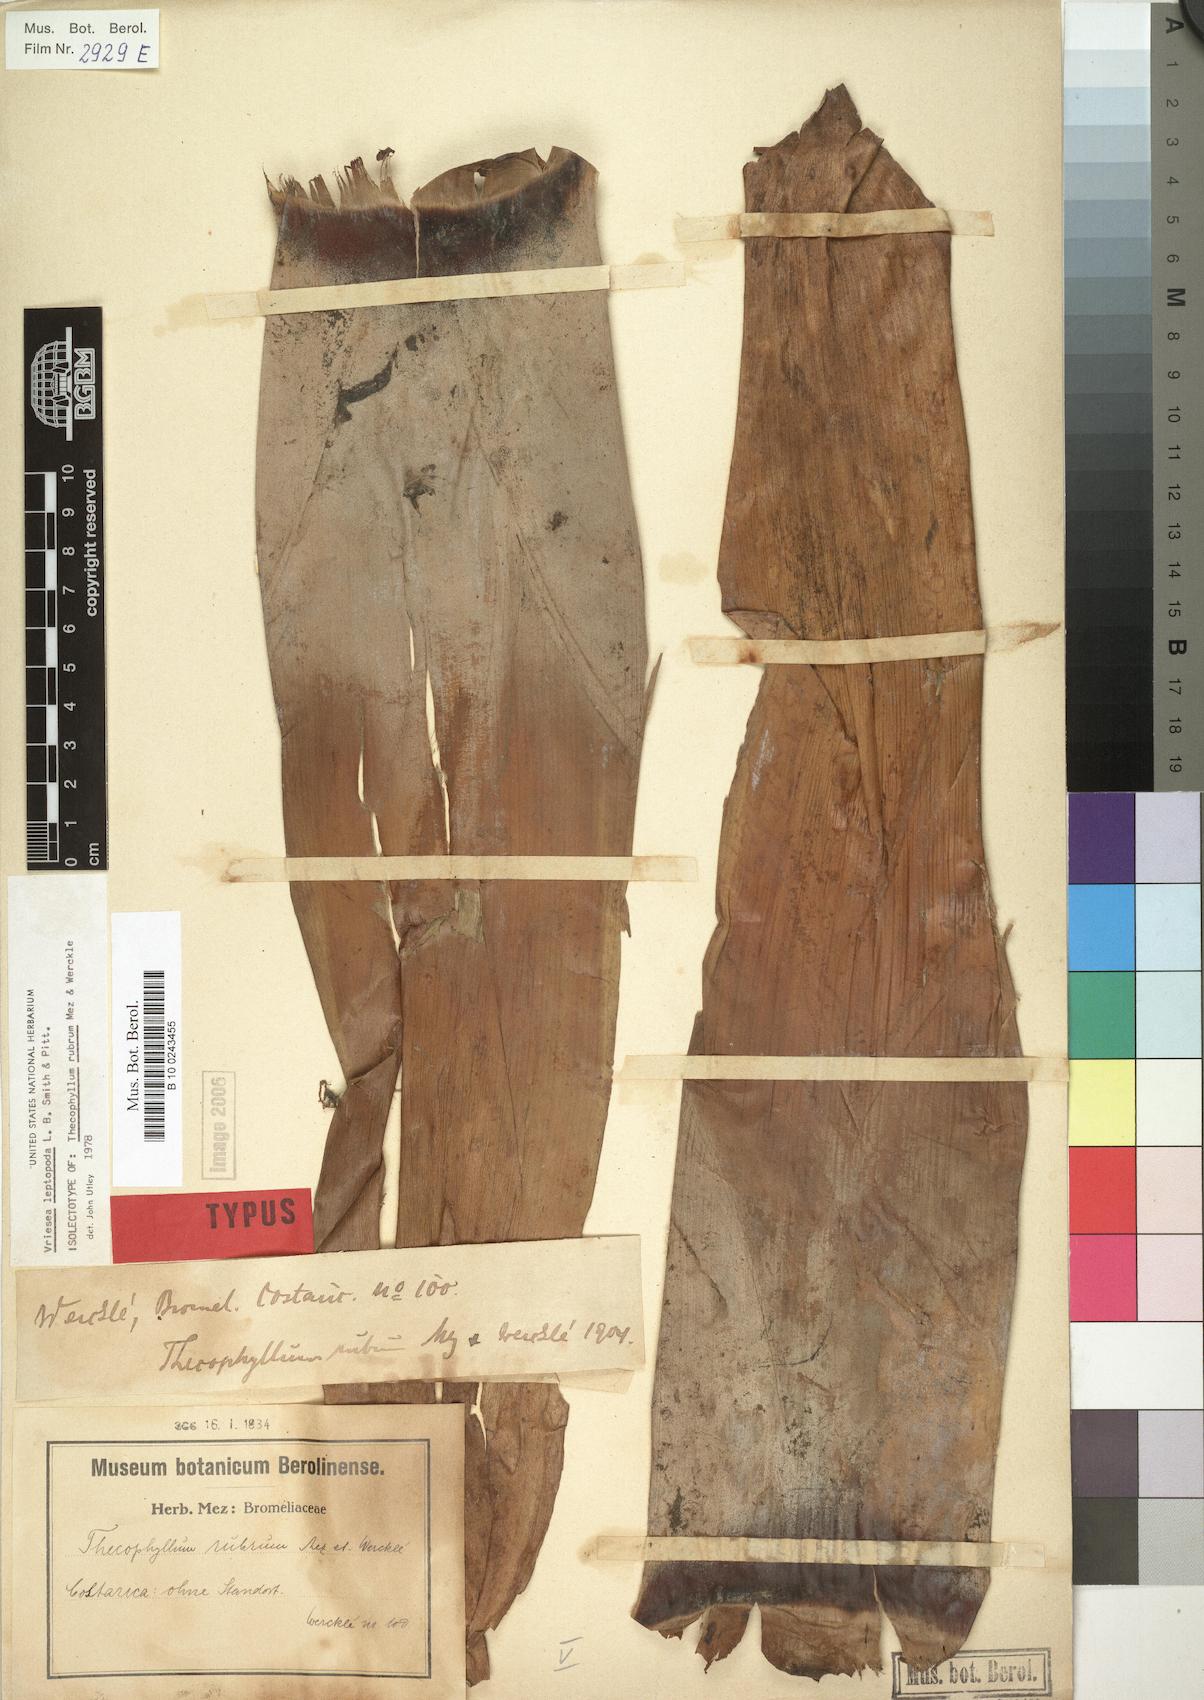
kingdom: Plantae
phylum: Tracheophyta
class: Liliopsida
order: Poales
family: Bromeliaceae
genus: Werauhia
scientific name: Werauhia rubra
